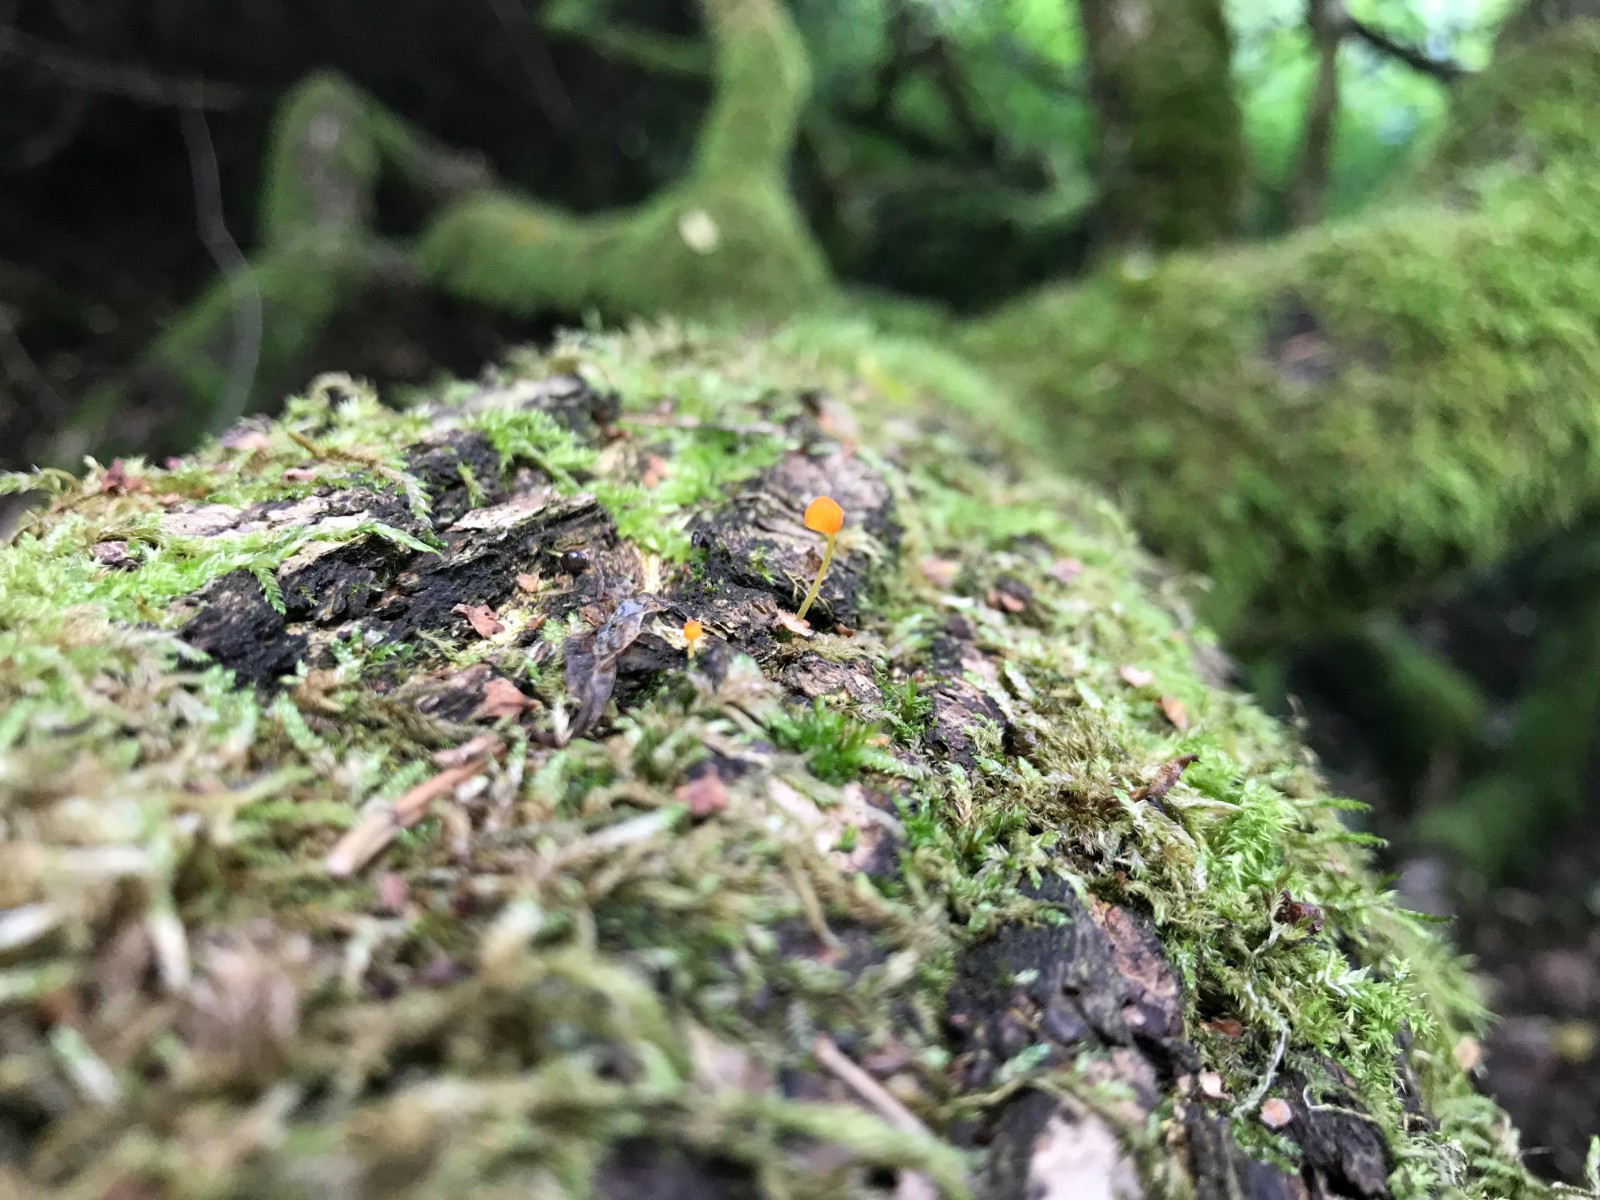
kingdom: Fungi
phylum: Basidiomycota
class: Agaricomycetes
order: Agaricales
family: Mycenaceae
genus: Mycena
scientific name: Mycena acicula
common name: orange huesvamp
